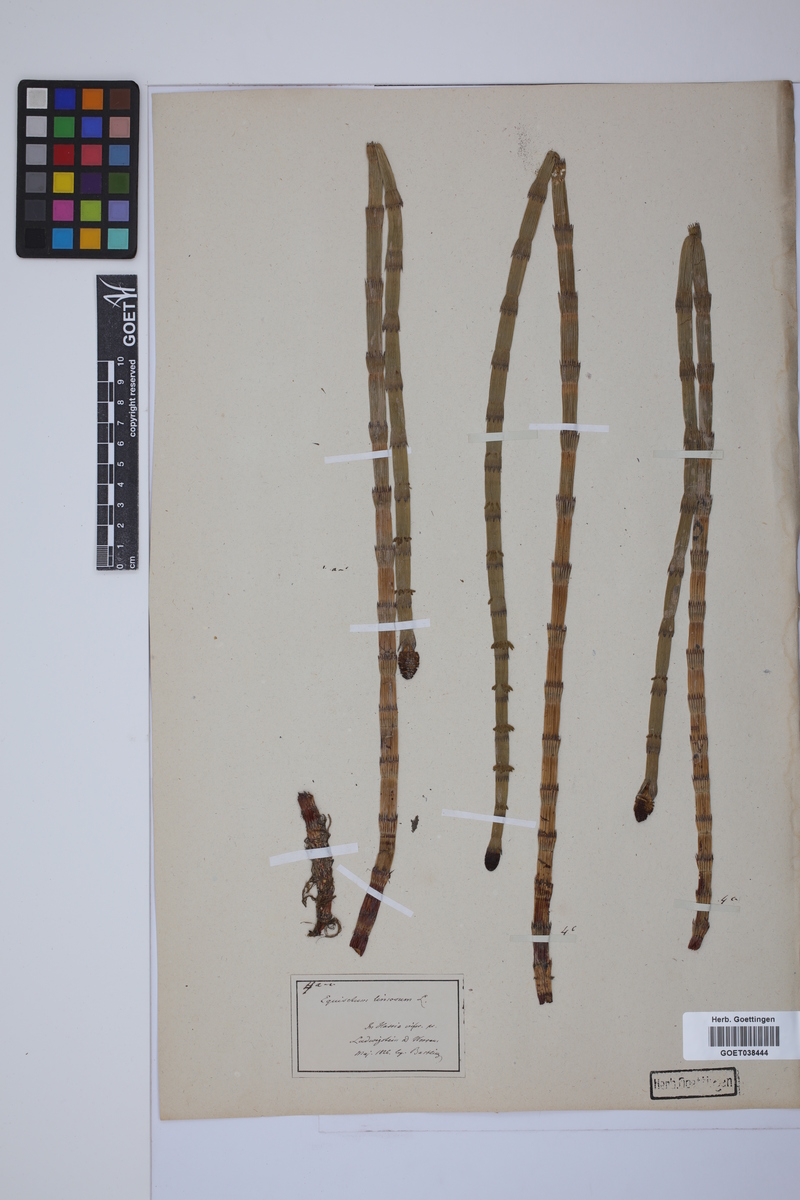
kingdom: Plantae
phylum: Tracheophyta
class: Polypodiopsida
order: Equisetales
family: Equisetaceae
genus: Equisetum
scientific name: Equisetum fluviatile
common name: Water horsetail
